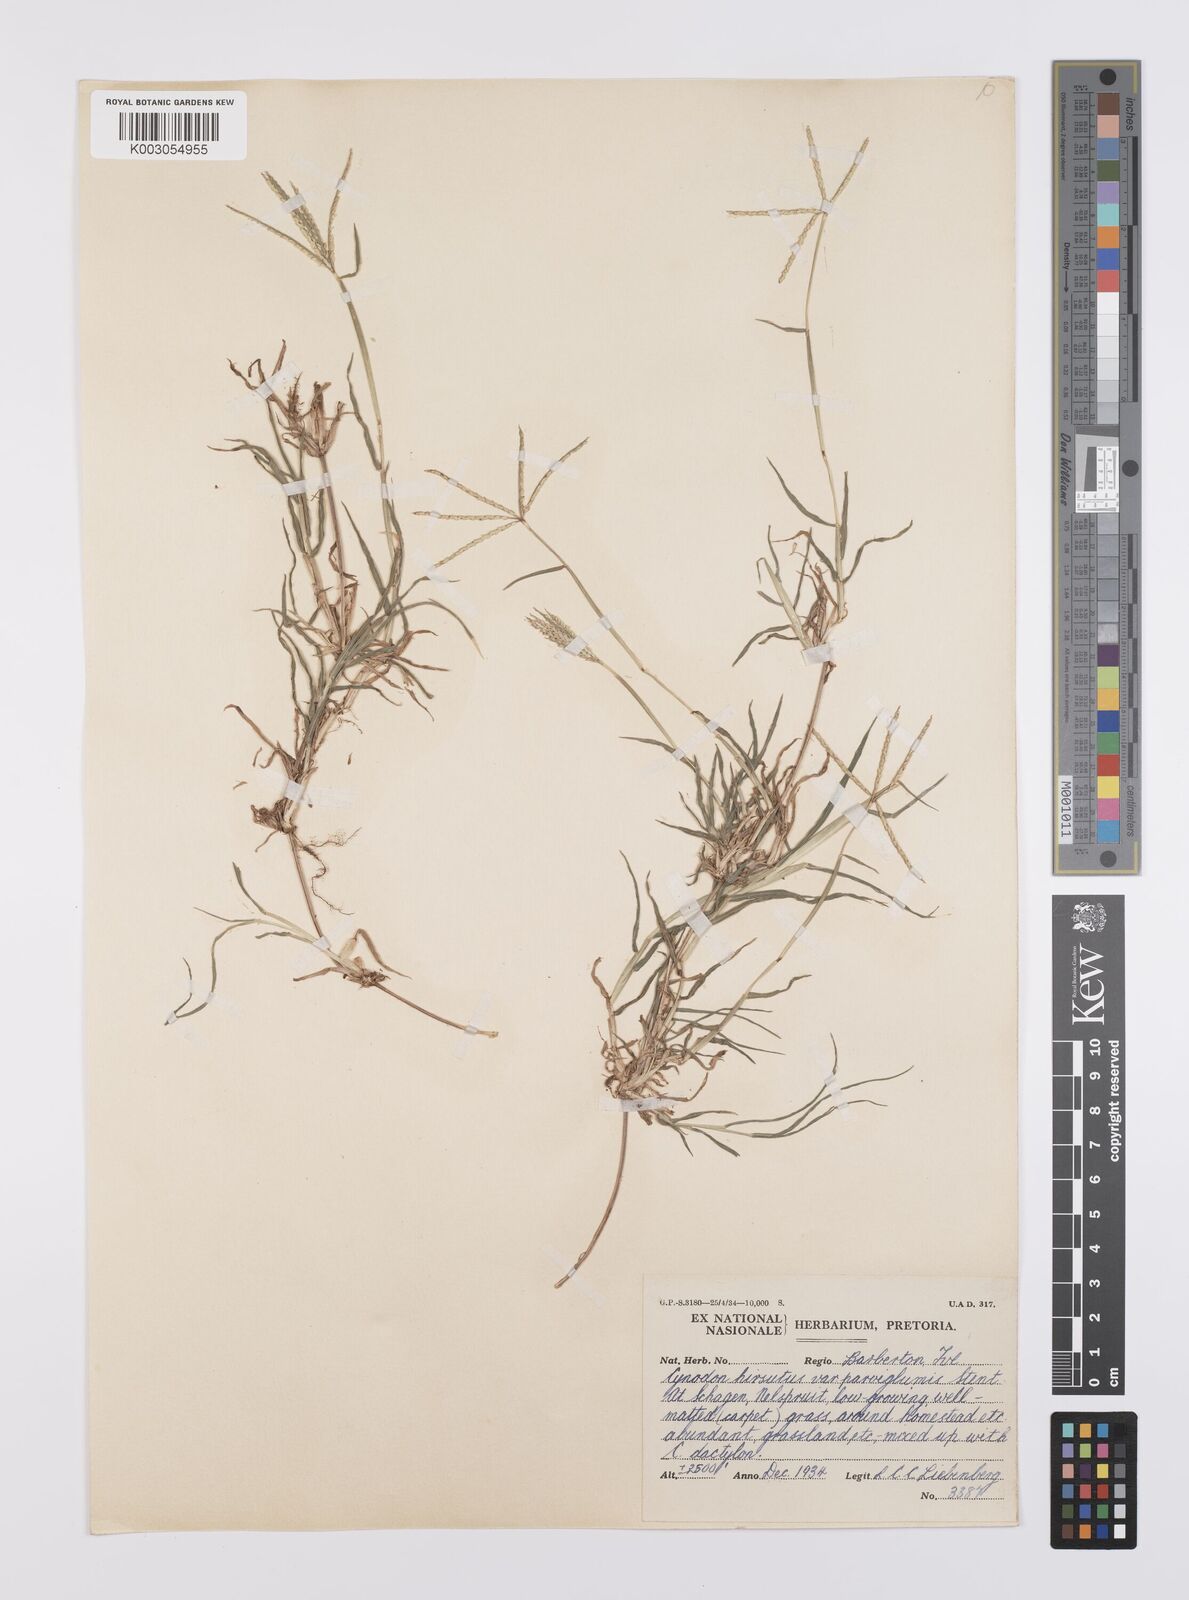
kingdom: Plantae
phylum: Tracheophyta
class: Liliopsida
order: Poales
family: Poaceae
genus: Cynodon
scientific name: Cynodon incompletus
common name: African bermuda-grass
